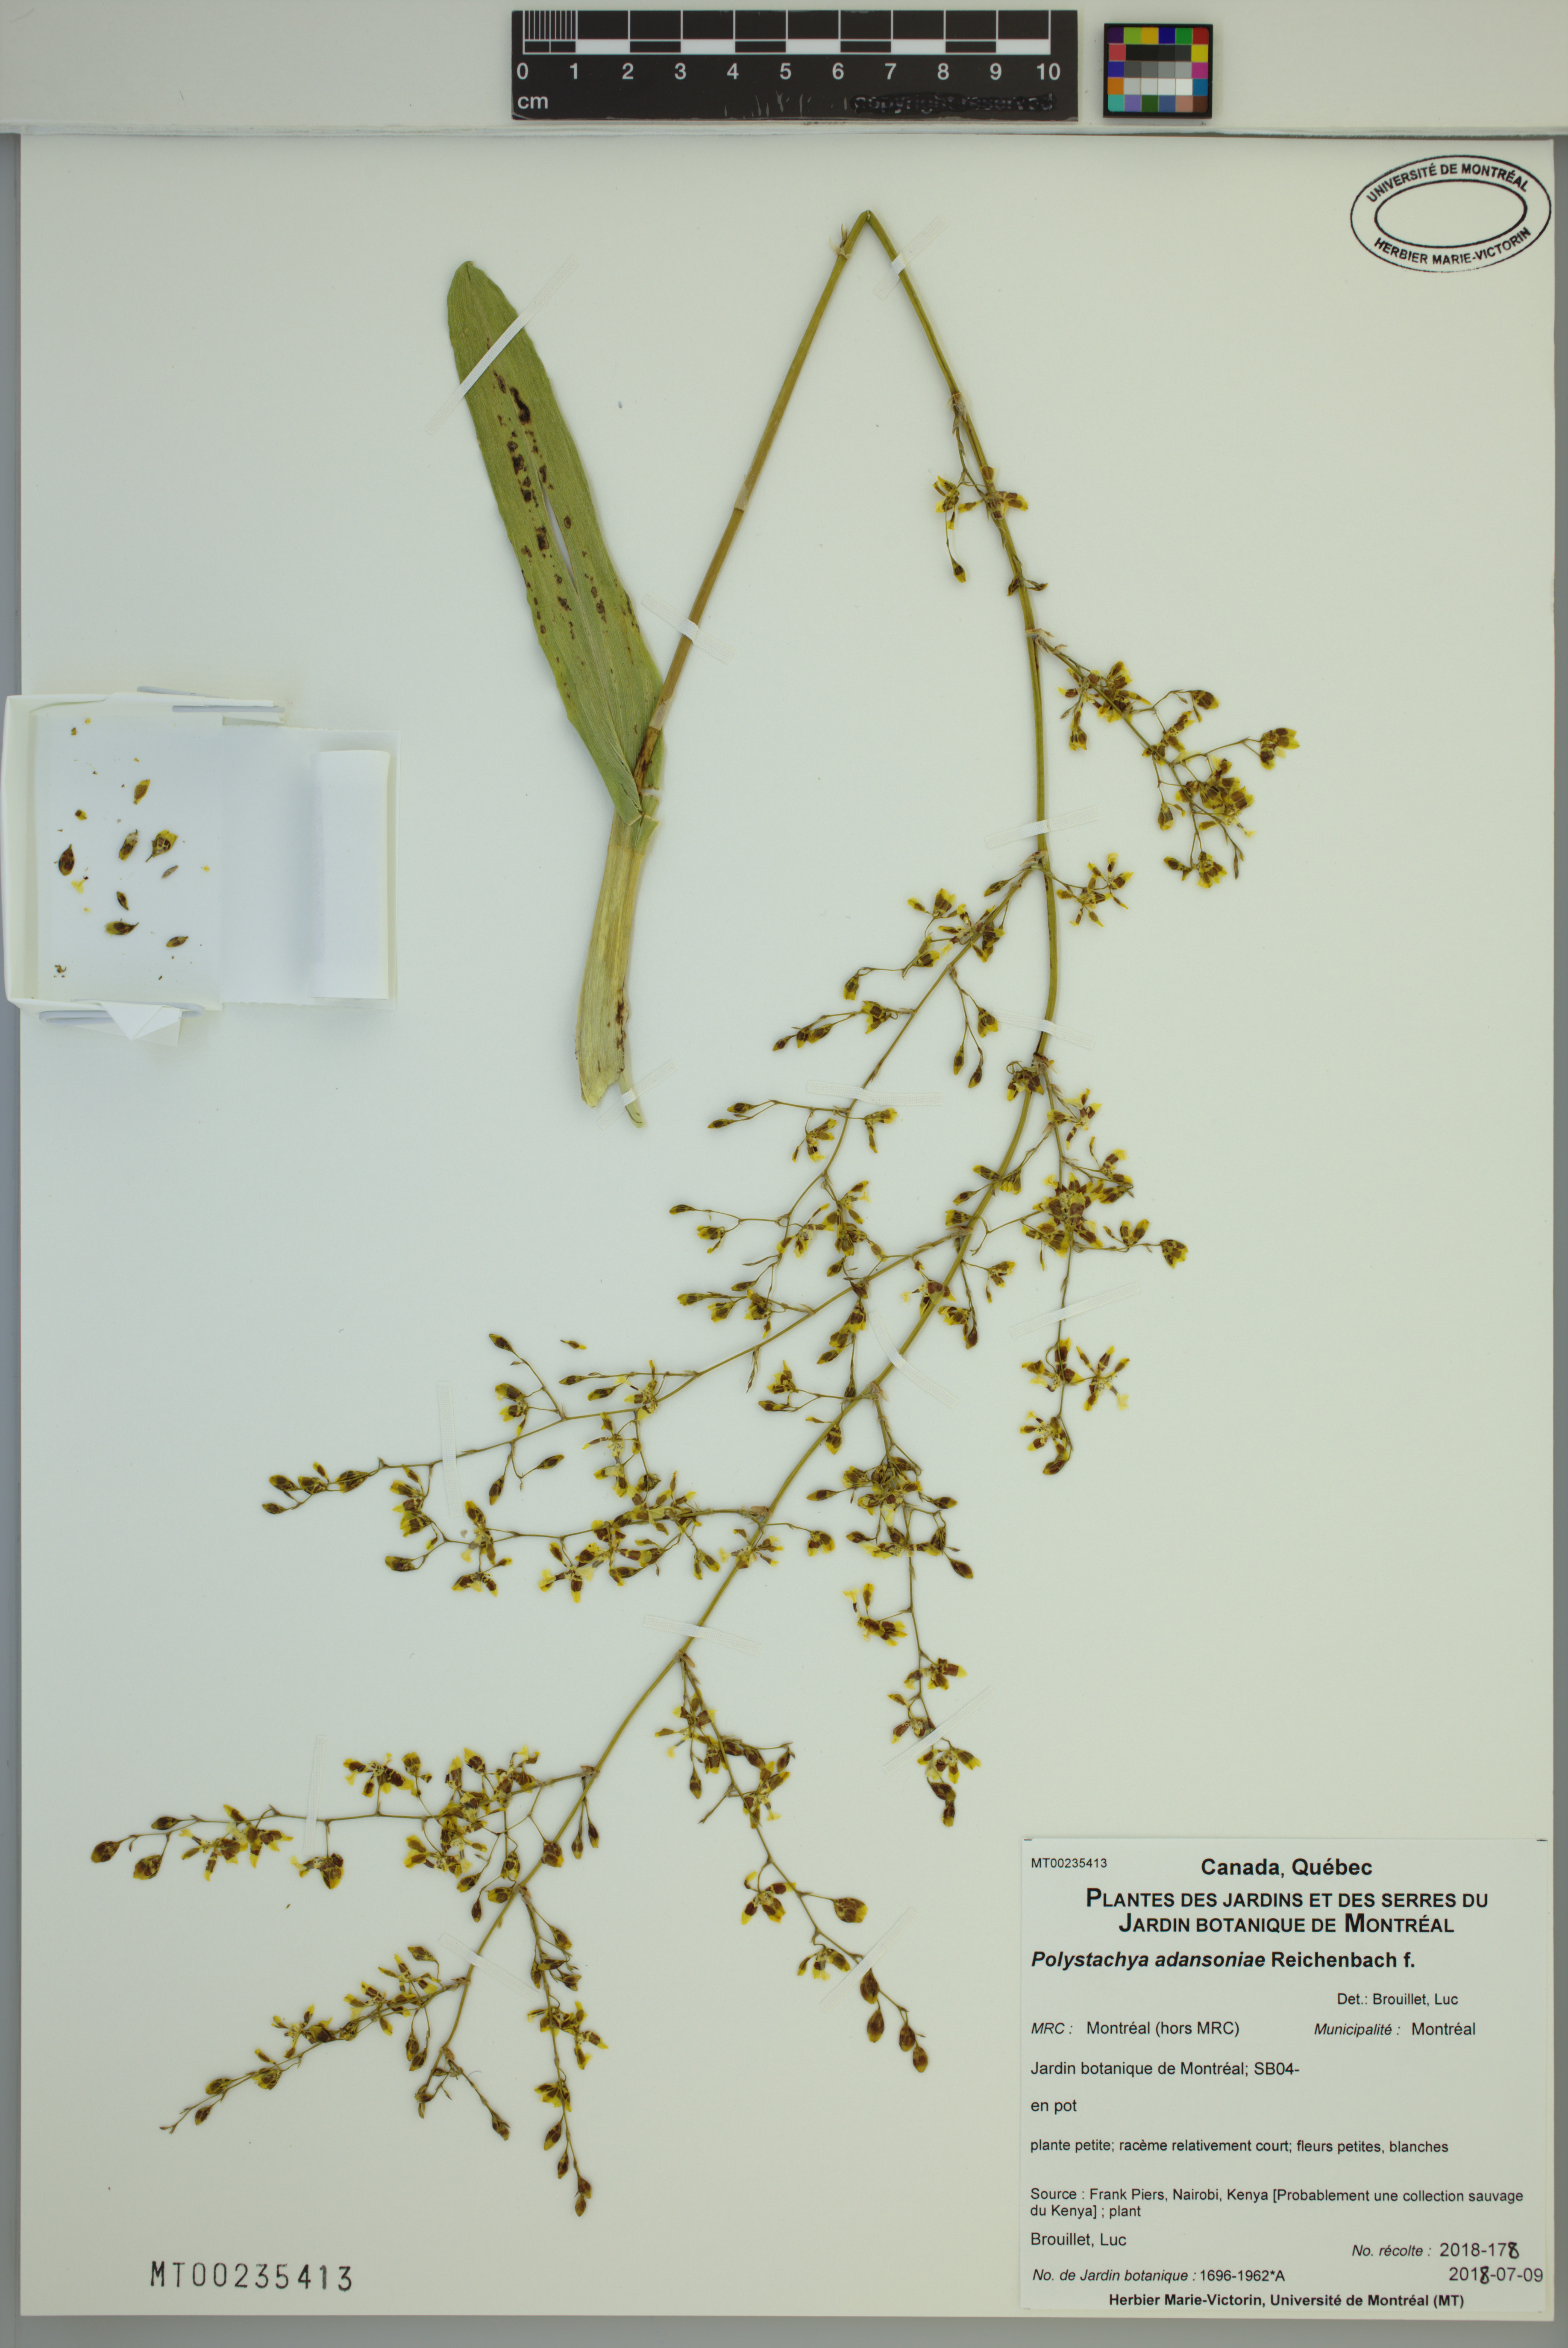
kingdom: Plantae
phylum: Tracheophyta
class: Liliopsida
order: Asparagales
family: Orchidaceae
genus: Polystachya
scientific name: Polystachya adansoniae
